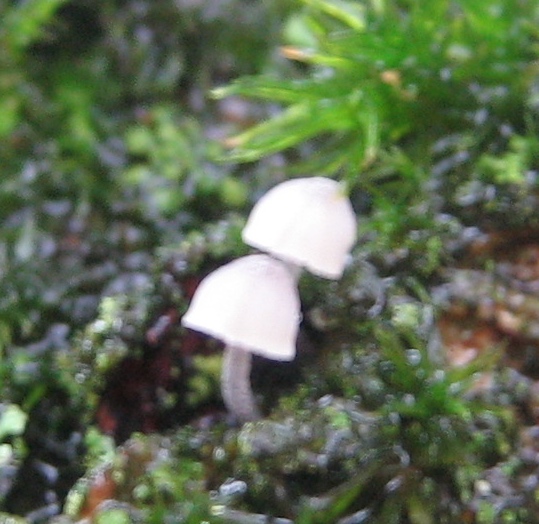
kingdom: Fungi
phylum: Basidiomycota
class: Agaricomycetes
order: Agaricales
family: Mycenaceae
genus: Mycena
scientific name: Mycena
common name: huesvamp
